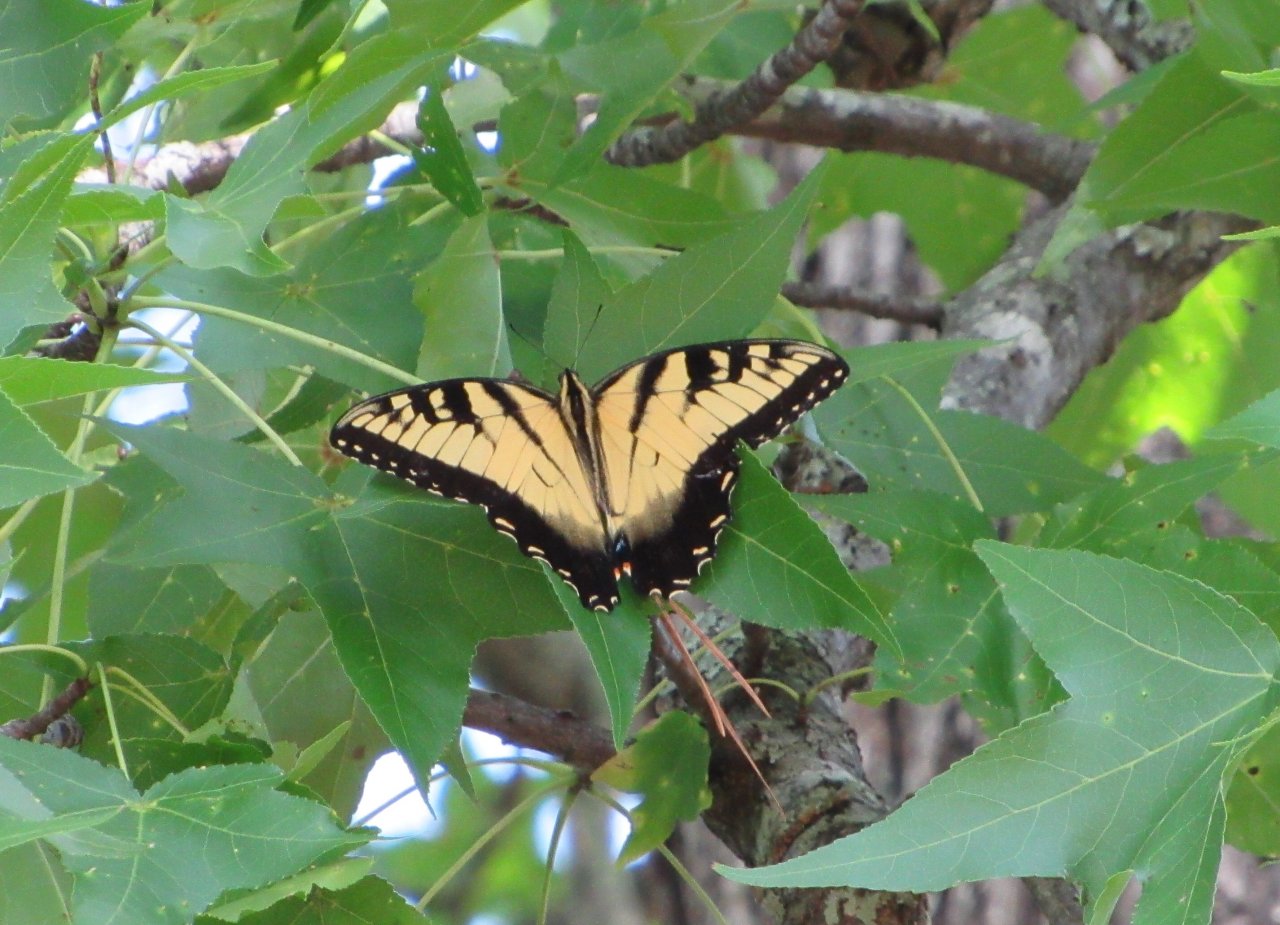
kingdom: Animalia
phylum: Arthropoda
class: Insecta
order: Lepidoptera
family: Papilionidae
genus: Pterourus
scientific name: Pterourus glaucus
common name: Eastern Tiger Swallowtail
